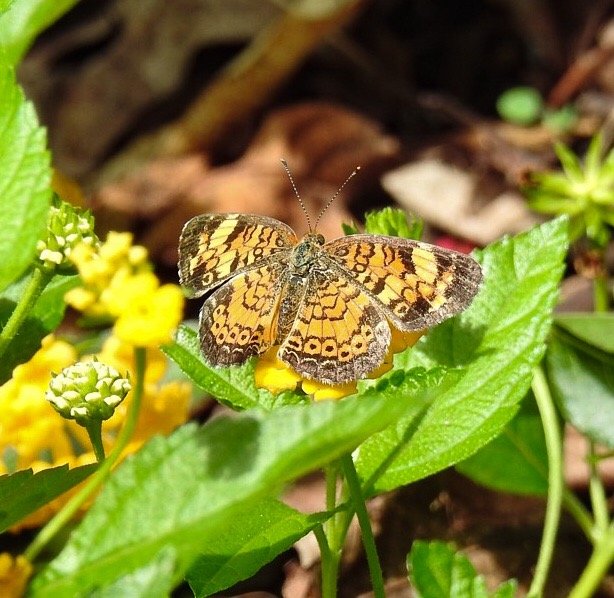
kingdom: Animalia
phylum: Arthropoda
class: Insecta
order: Lepidoptera
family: Nymphalidae
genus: Phyciodes
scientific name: Phyciodes tharos
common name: Pearl Crescent
